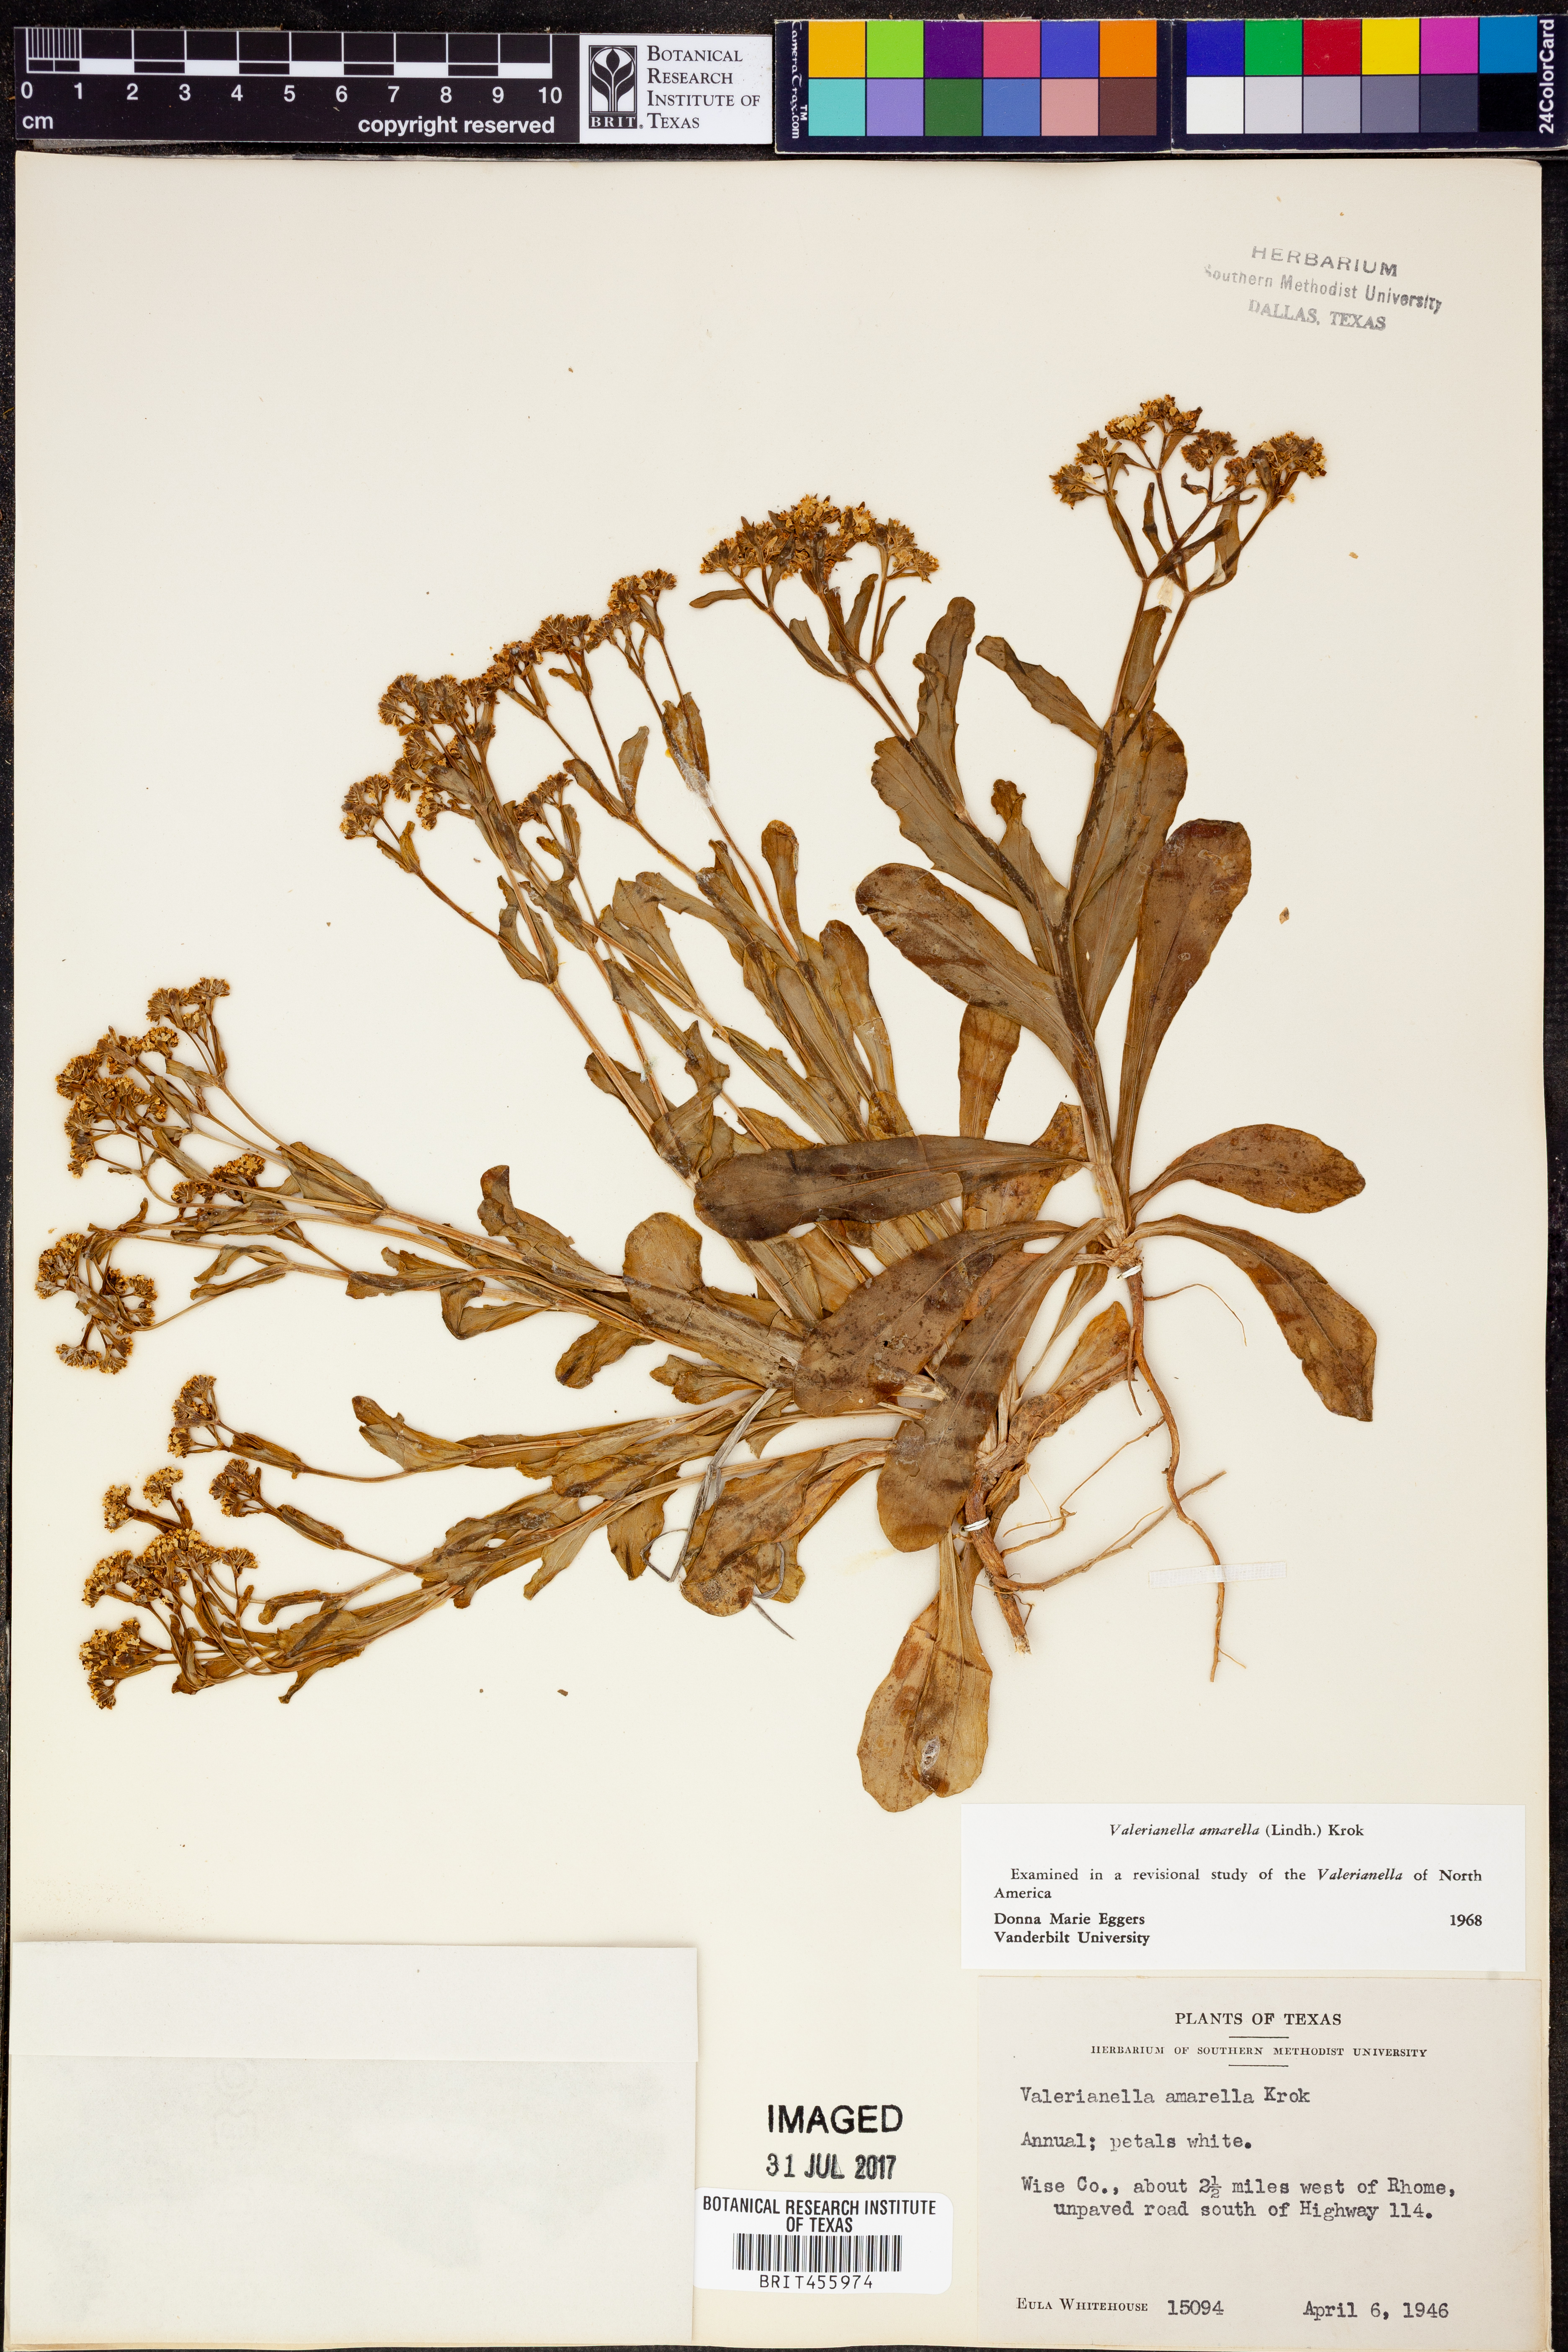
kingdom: Plantae
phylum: Tracheophyta
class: Magnoliopsida
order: Dipsacales
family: Caprifoliaceae
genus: Valerianella
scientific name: Valerianella amarella
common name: Hariy cornsalad
